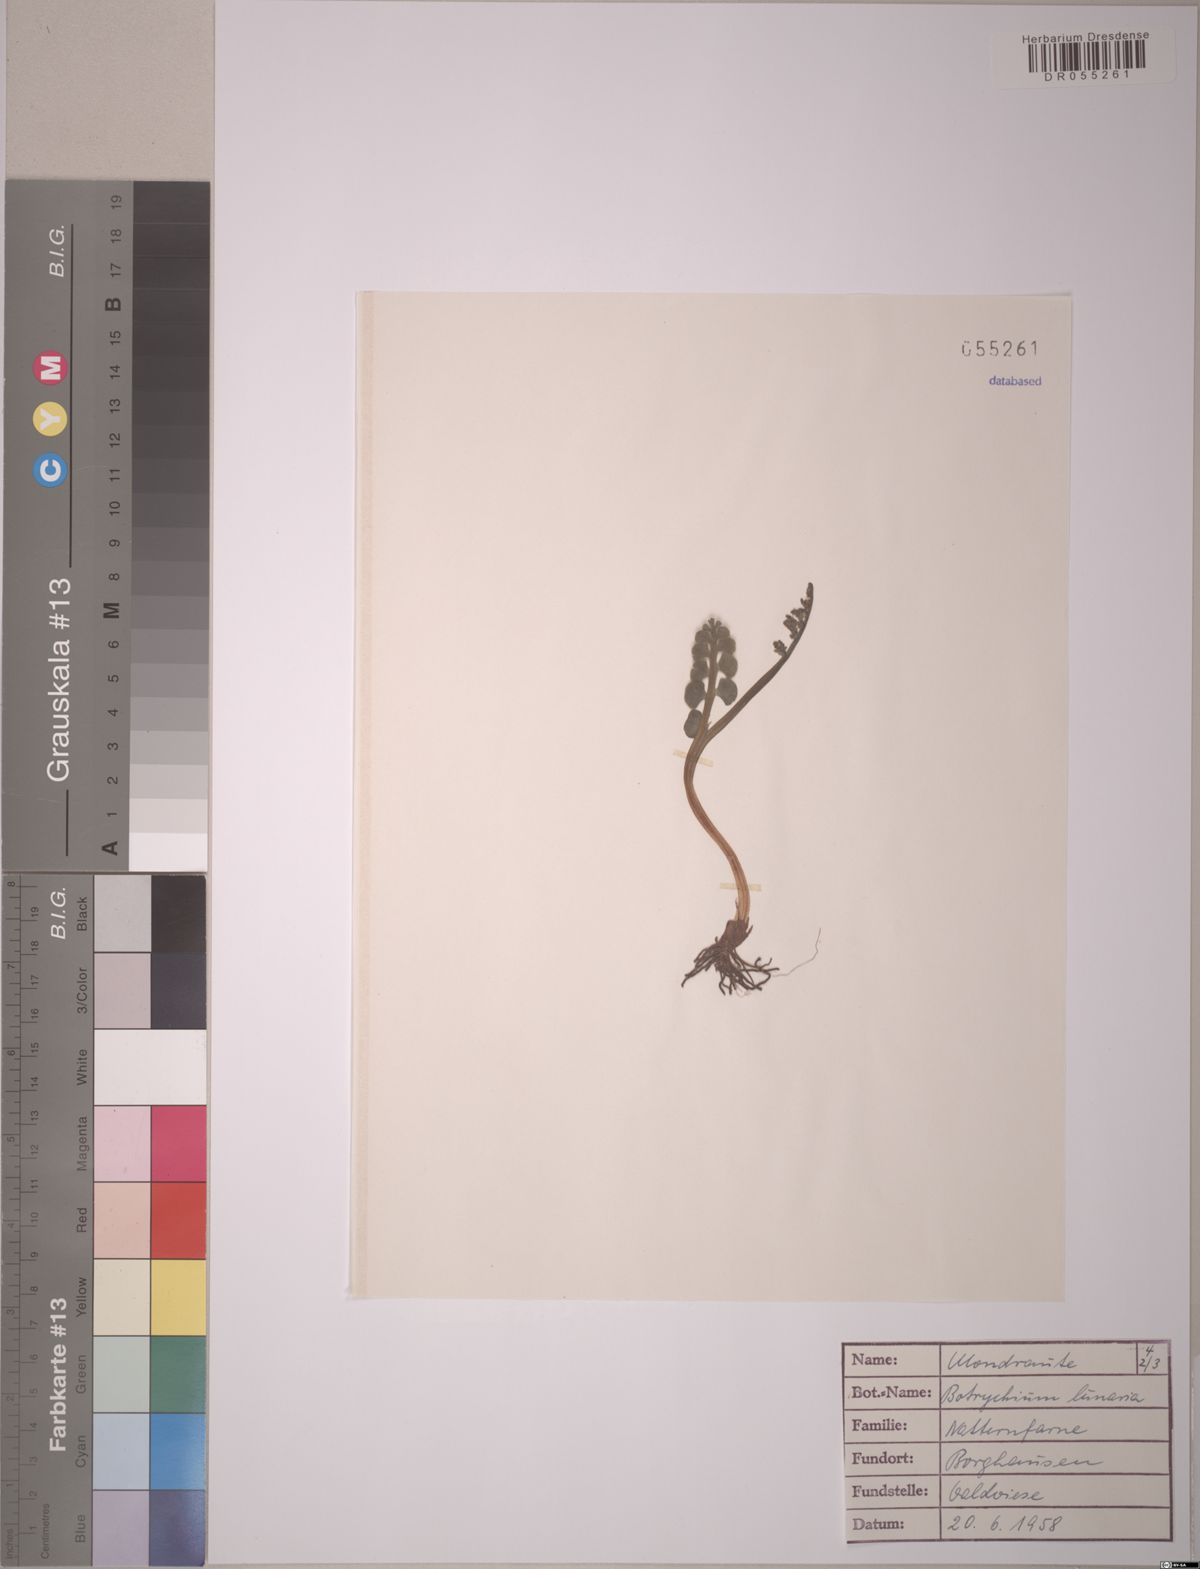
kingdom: Plantae
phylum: Tracheophyta
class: Polypodiopsida
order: Ophioglossales
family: Ophioglossaceae
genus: Botrychium
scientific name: Botrychium lunaria
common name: Moonwort
